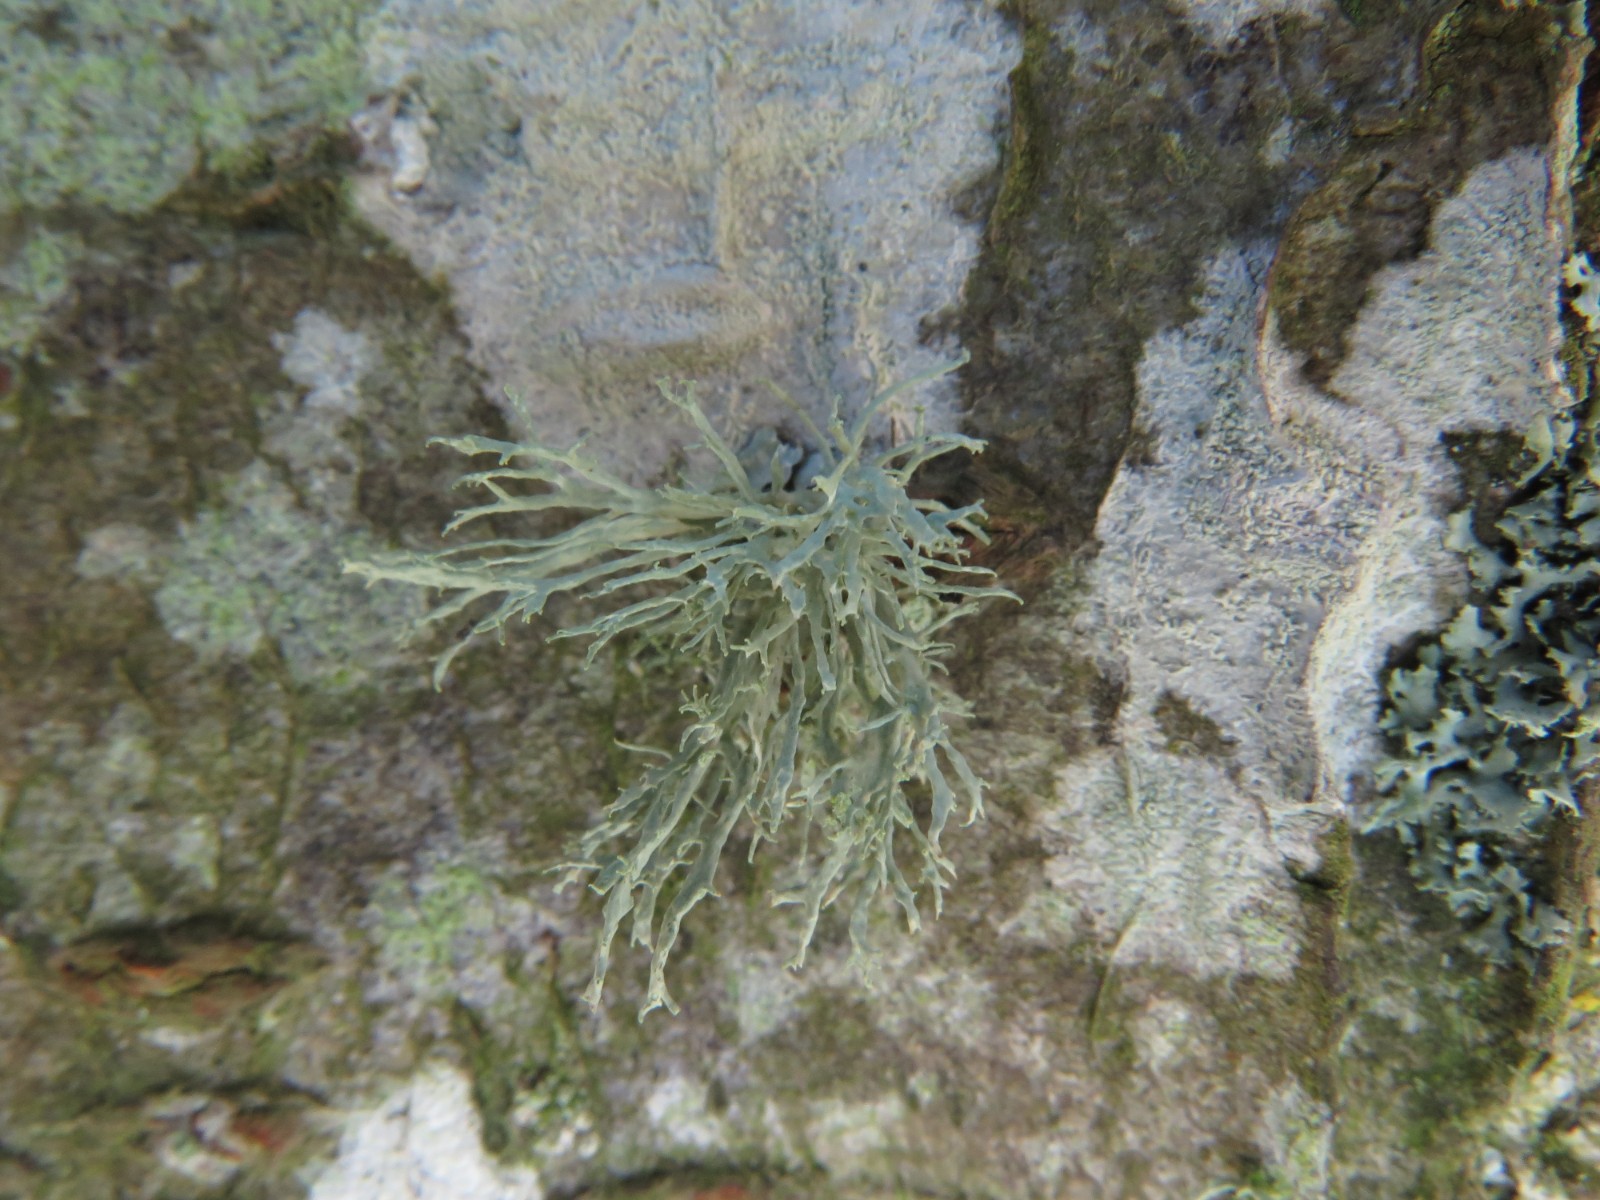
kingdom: Fungi
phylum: Ascomycota
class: Lecanoromycetes
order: Lecanorales
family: Parmeliaceae
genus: Evernia
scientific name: Evernia prunastri
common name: almindelig slåenlav
